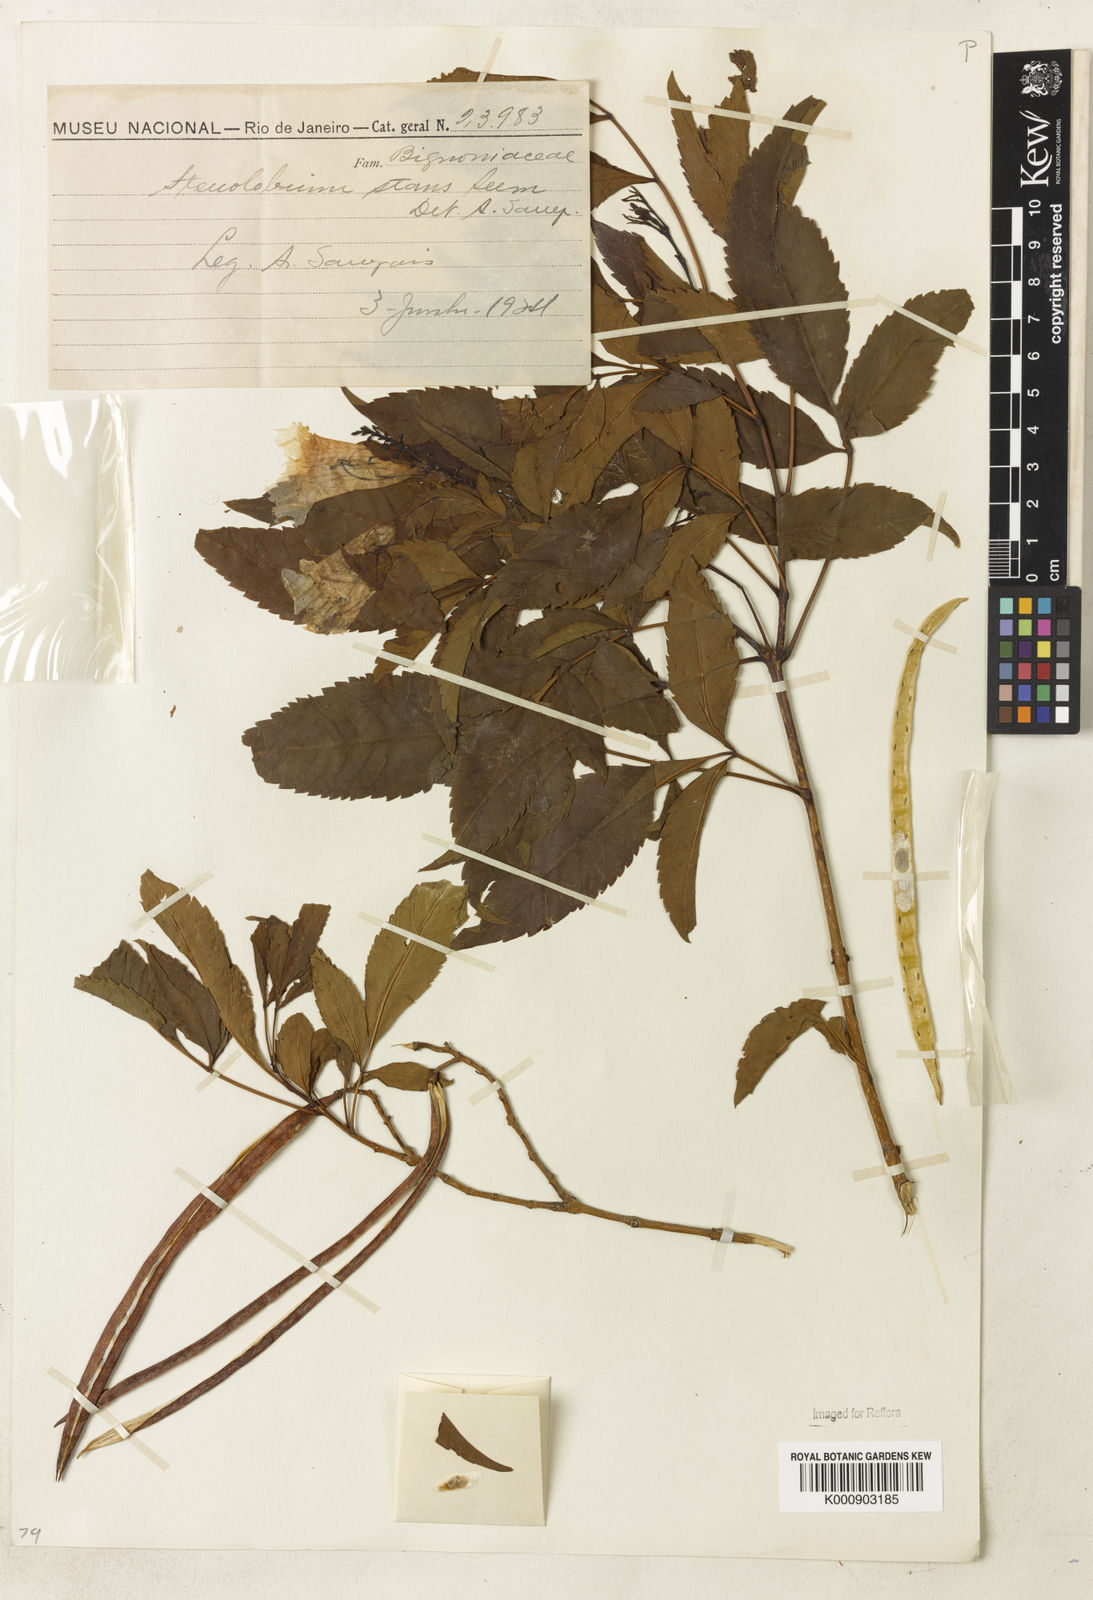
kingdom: Plantae
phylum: Tracheophyta
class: Magnoliopsida
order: Lamiales
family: Bignoniaceae
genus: Tecoma
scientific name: Tecoma stans
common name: Yellow trumpetbush
